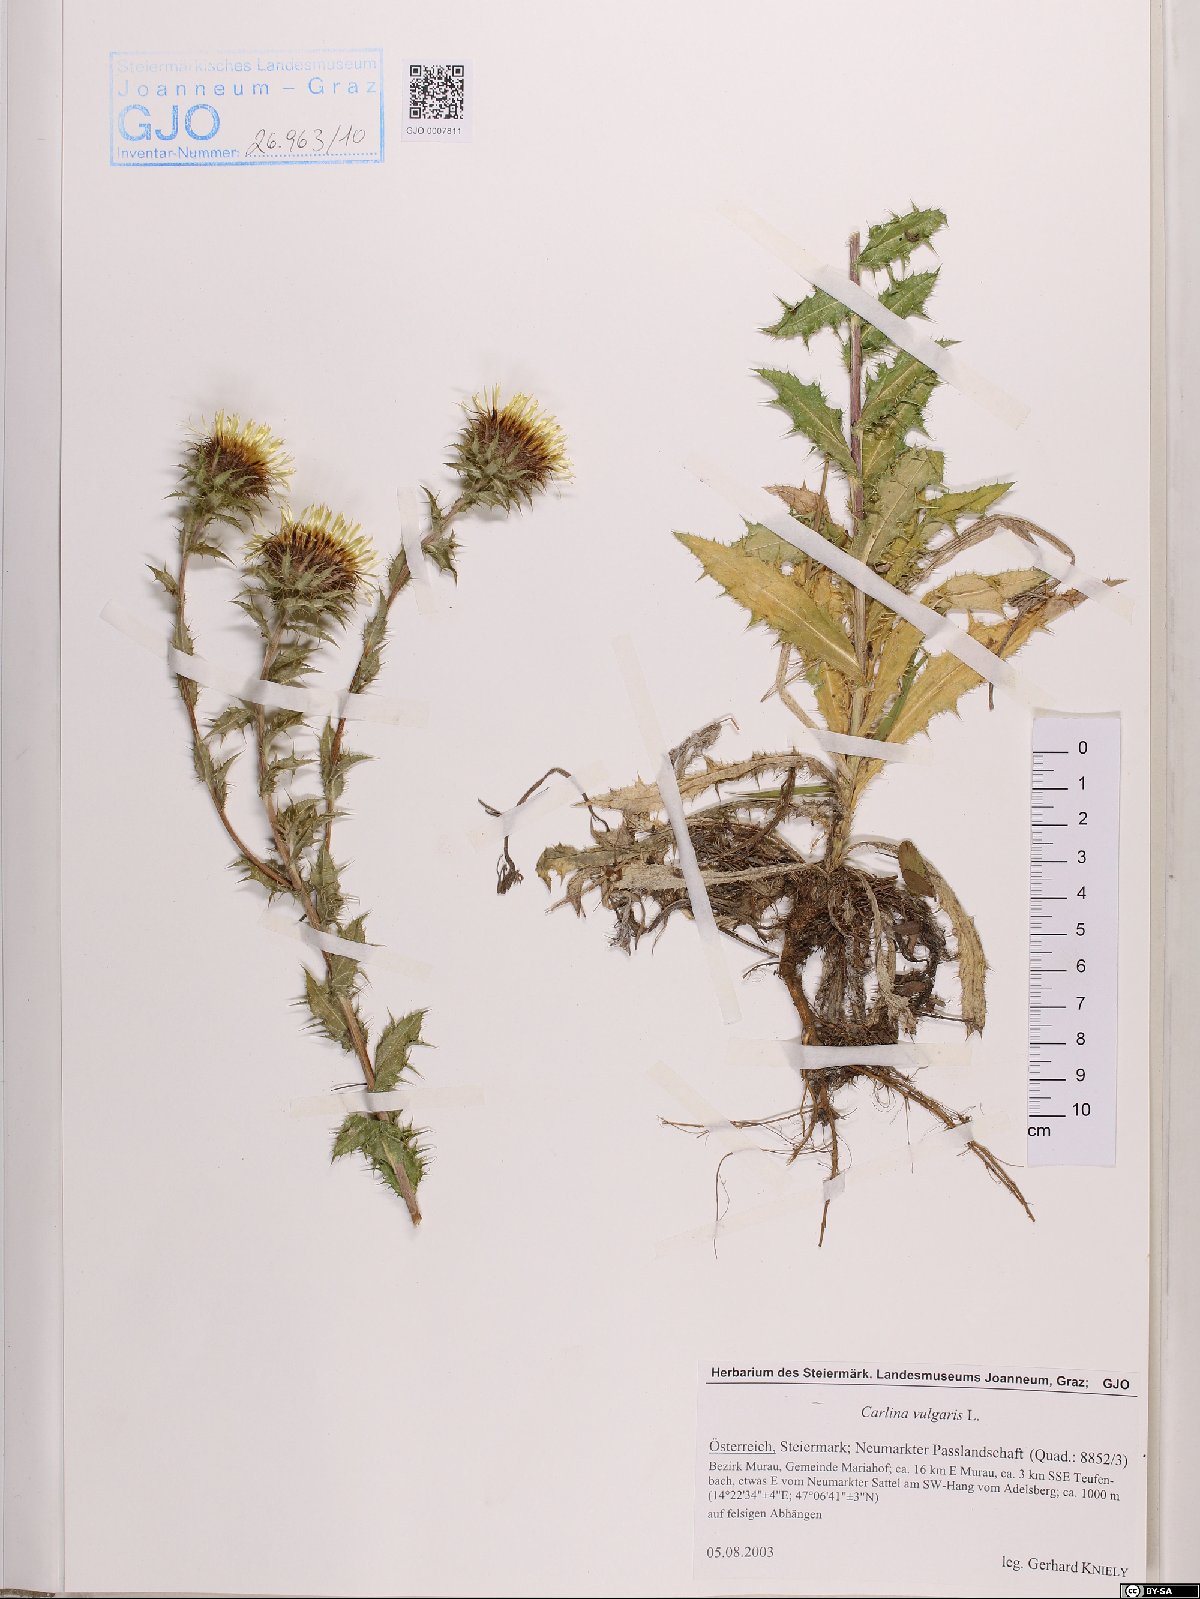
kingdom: Plantae
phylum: Tracheophyta
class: Magnoliopsida
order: Asterales
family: Asteraceae
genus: Carlina
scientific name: Carlina vulgaris
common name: Carline thistle
